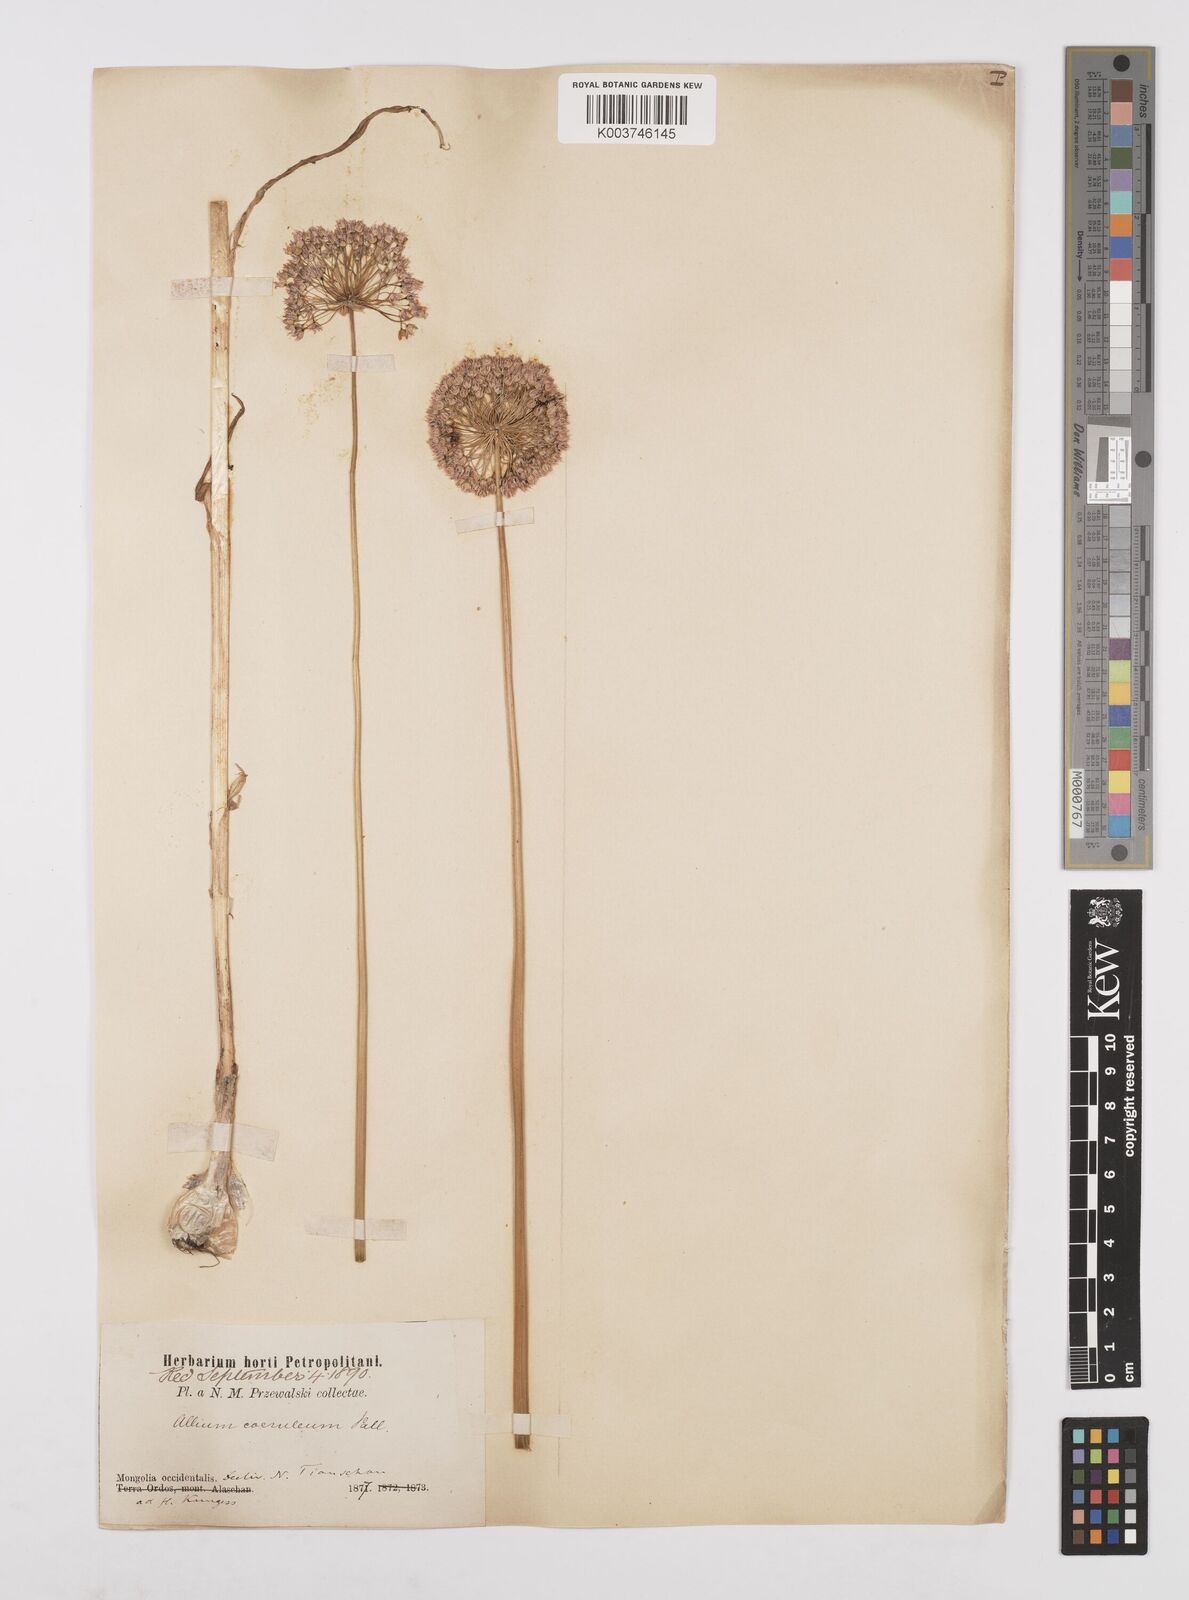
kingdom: Plantae
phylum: Tracheophyta
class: Liliopsida
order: Asparagales
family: Amaryllidaceae
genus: Allium
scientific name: Allium caeruleum
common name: Blue-of-the-heavens
